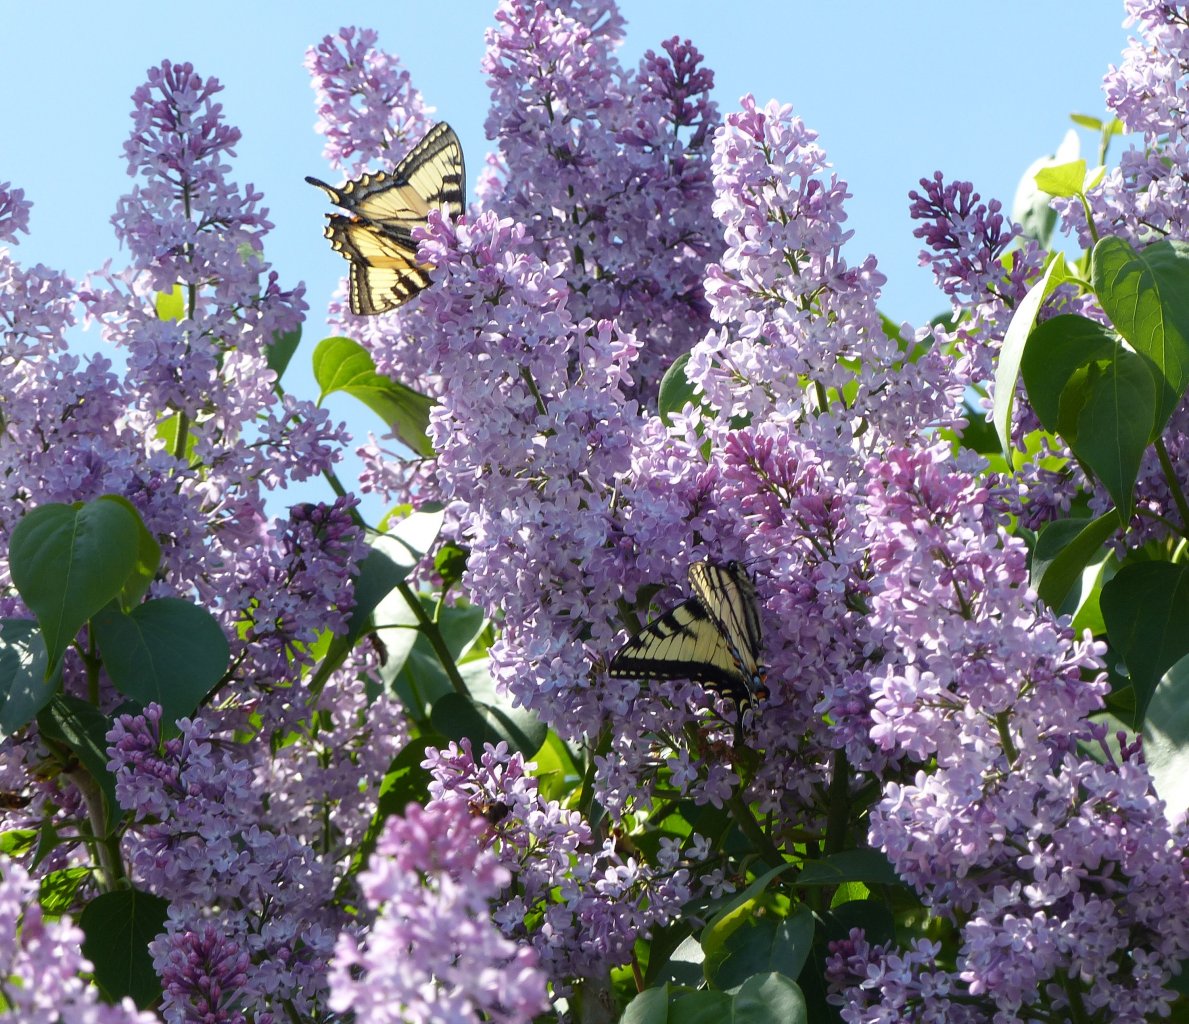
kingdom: Animalia
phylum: Arthropoda
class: Insecta
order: Lepidoptera
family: Papilionidae
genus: Pterourus
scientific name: Pterourus canadensis
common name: Canadian Tiger Swallowtail
